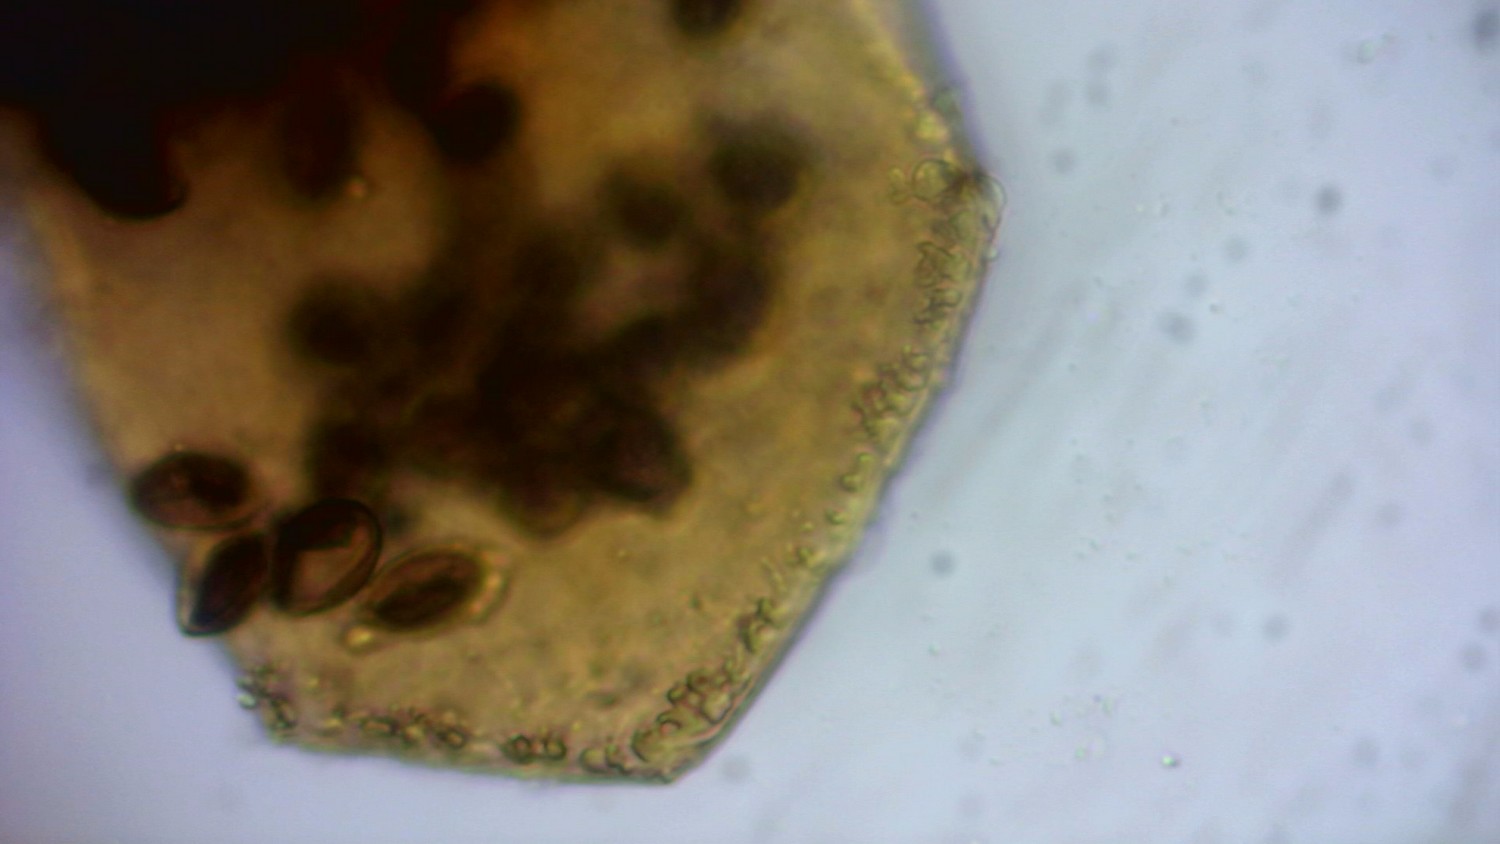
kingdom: Protozoa
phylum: Mycetozoa
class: Myxomycetes
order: Cribrariales
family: Liceaceae
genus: Licea
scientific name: Licea pygmaea
